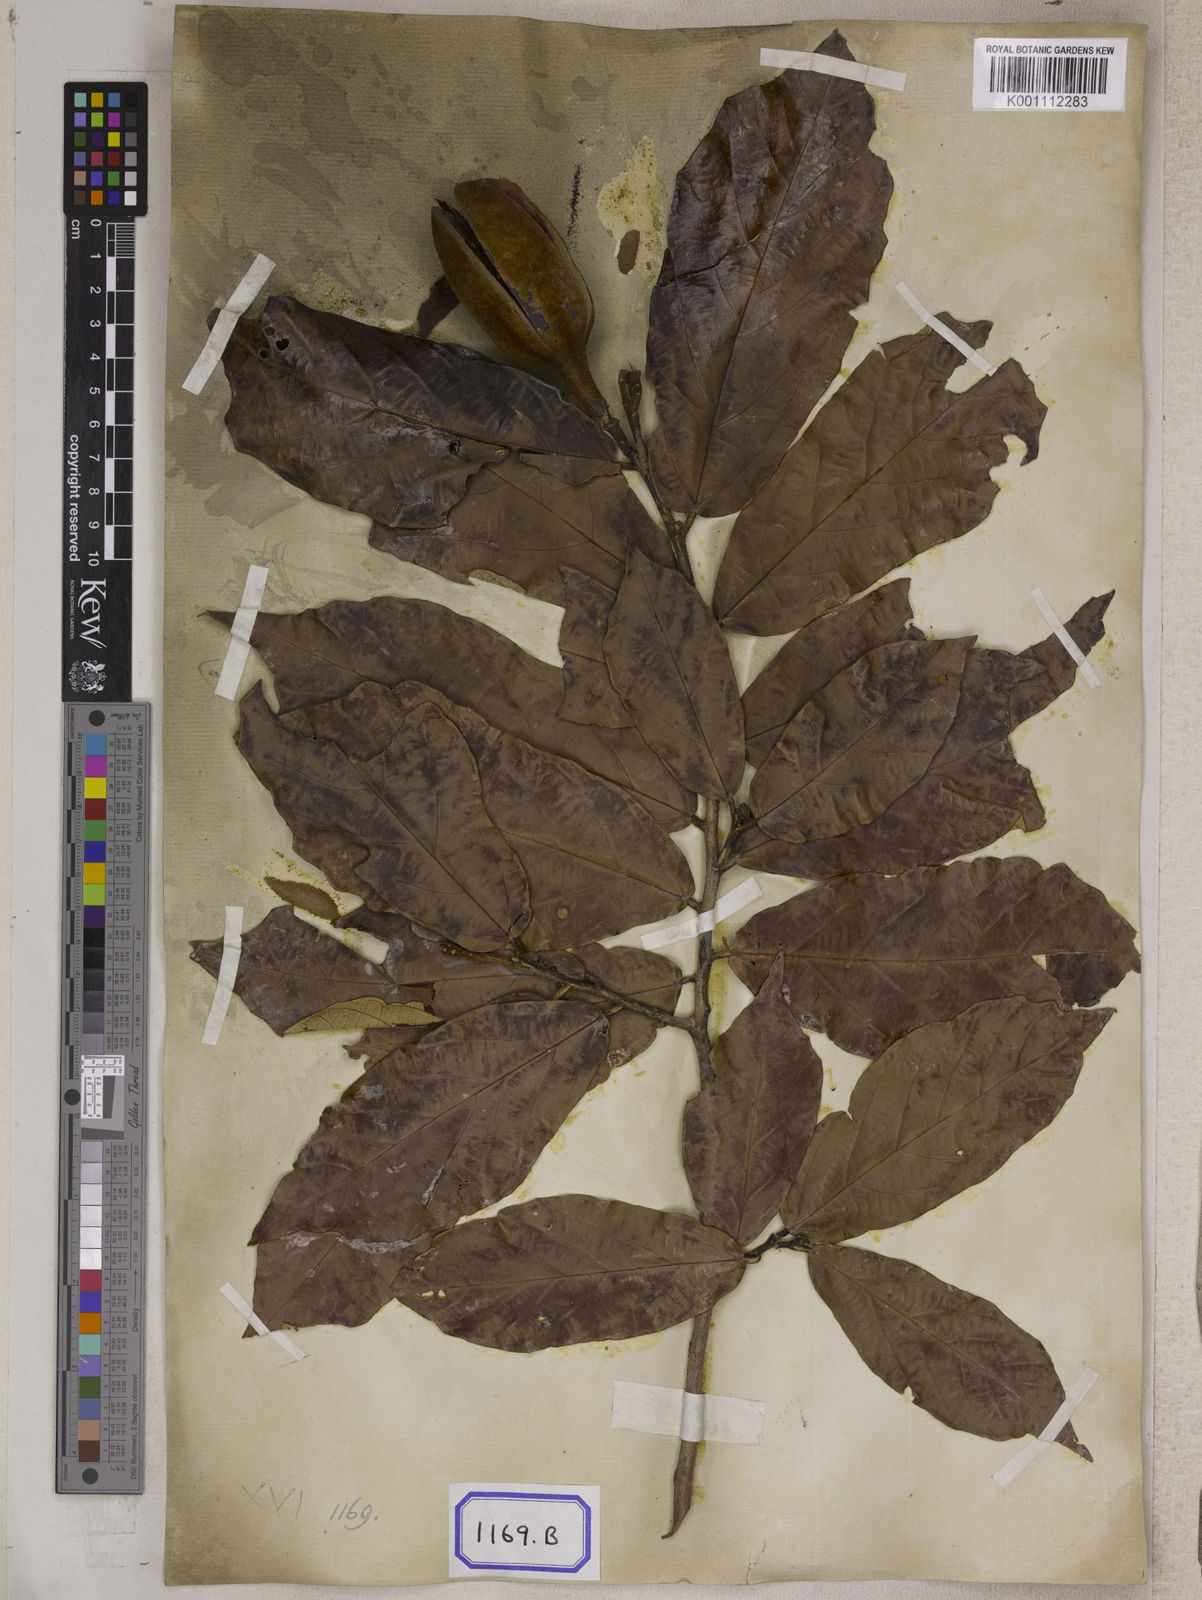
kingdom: Plantae
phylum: Tracheophyta
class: Magnoliopsida
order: Malvales
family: Malvaceae
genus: Pterospermum
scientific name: Pterospermum
